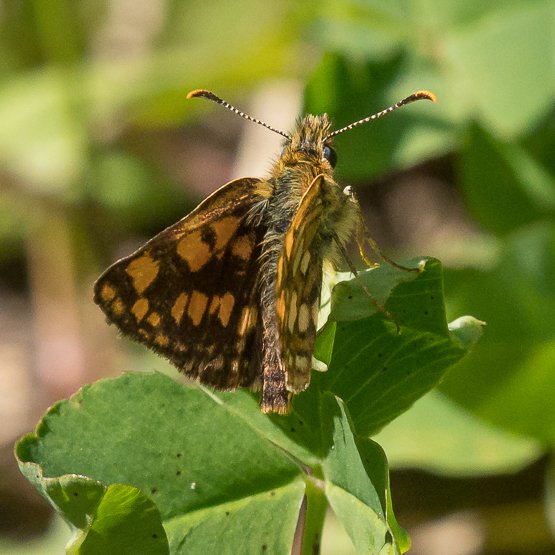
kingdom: Animalia
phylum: Arthropoda
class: Insecta
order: Lepidoptera
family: Hesperiidae
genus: Carterocephalus
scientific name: Carterocephalus palaemon
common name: Chequered Skipper
